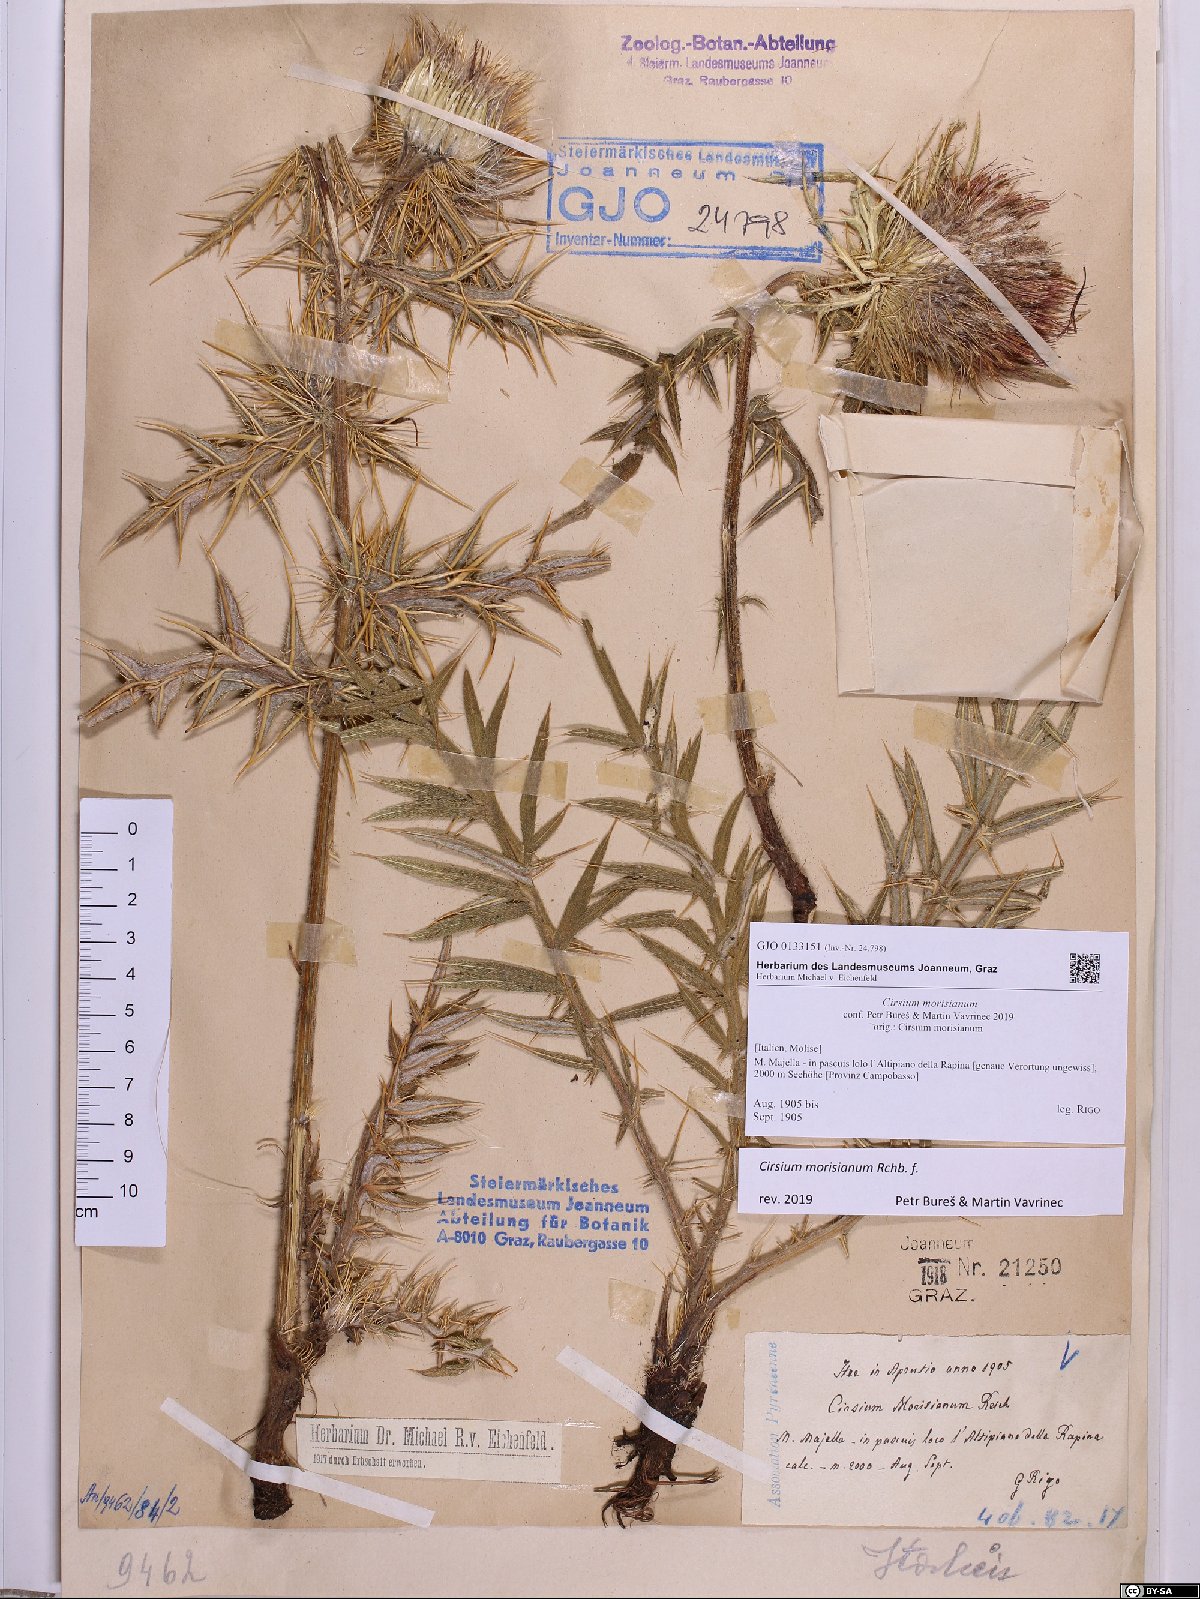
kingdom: Plantae
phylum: Tracheophyta
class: Magnoliopsida
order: Asterales
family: Asteraceae
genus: Lophiolepis
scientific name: Lophiolepis morisiana
